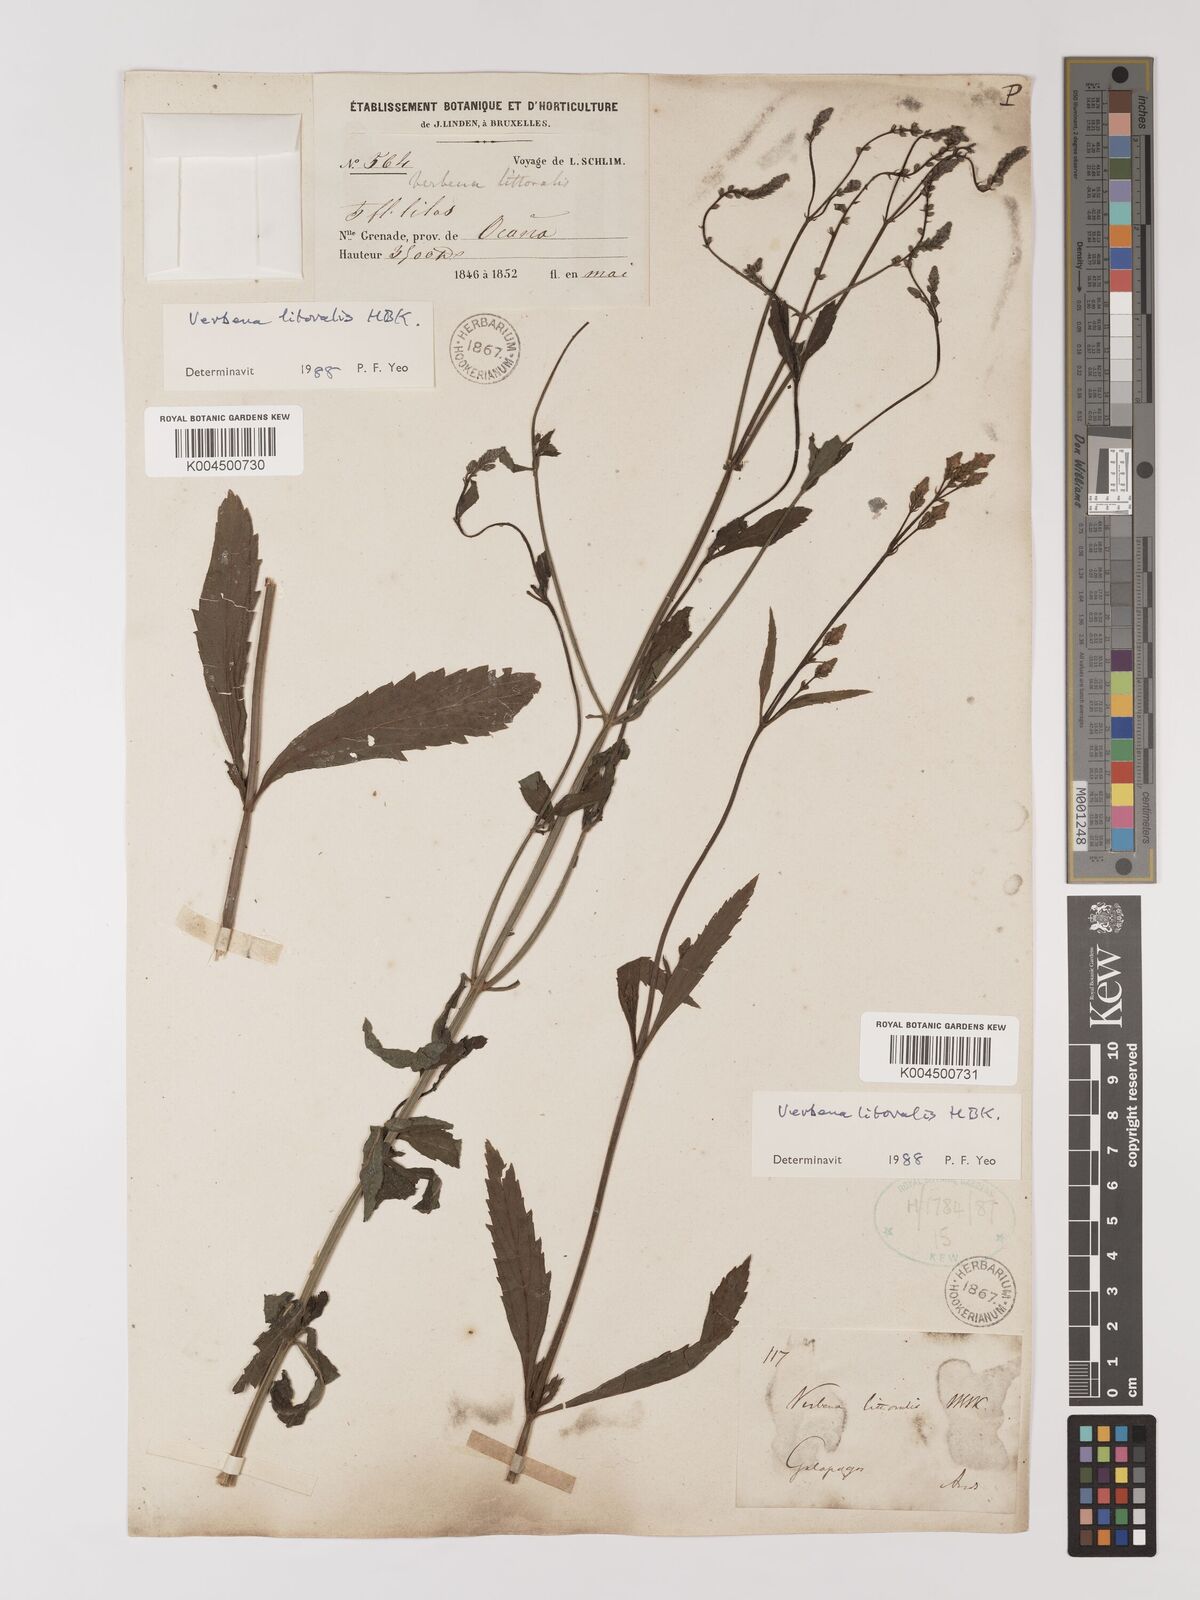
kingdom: Plantae
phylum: Tracheophyta
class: Magnoliopsida
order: Lamiales
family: Verbenaceae
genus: Verbena
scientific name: Verbena litoralis
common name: Seashore vervain
